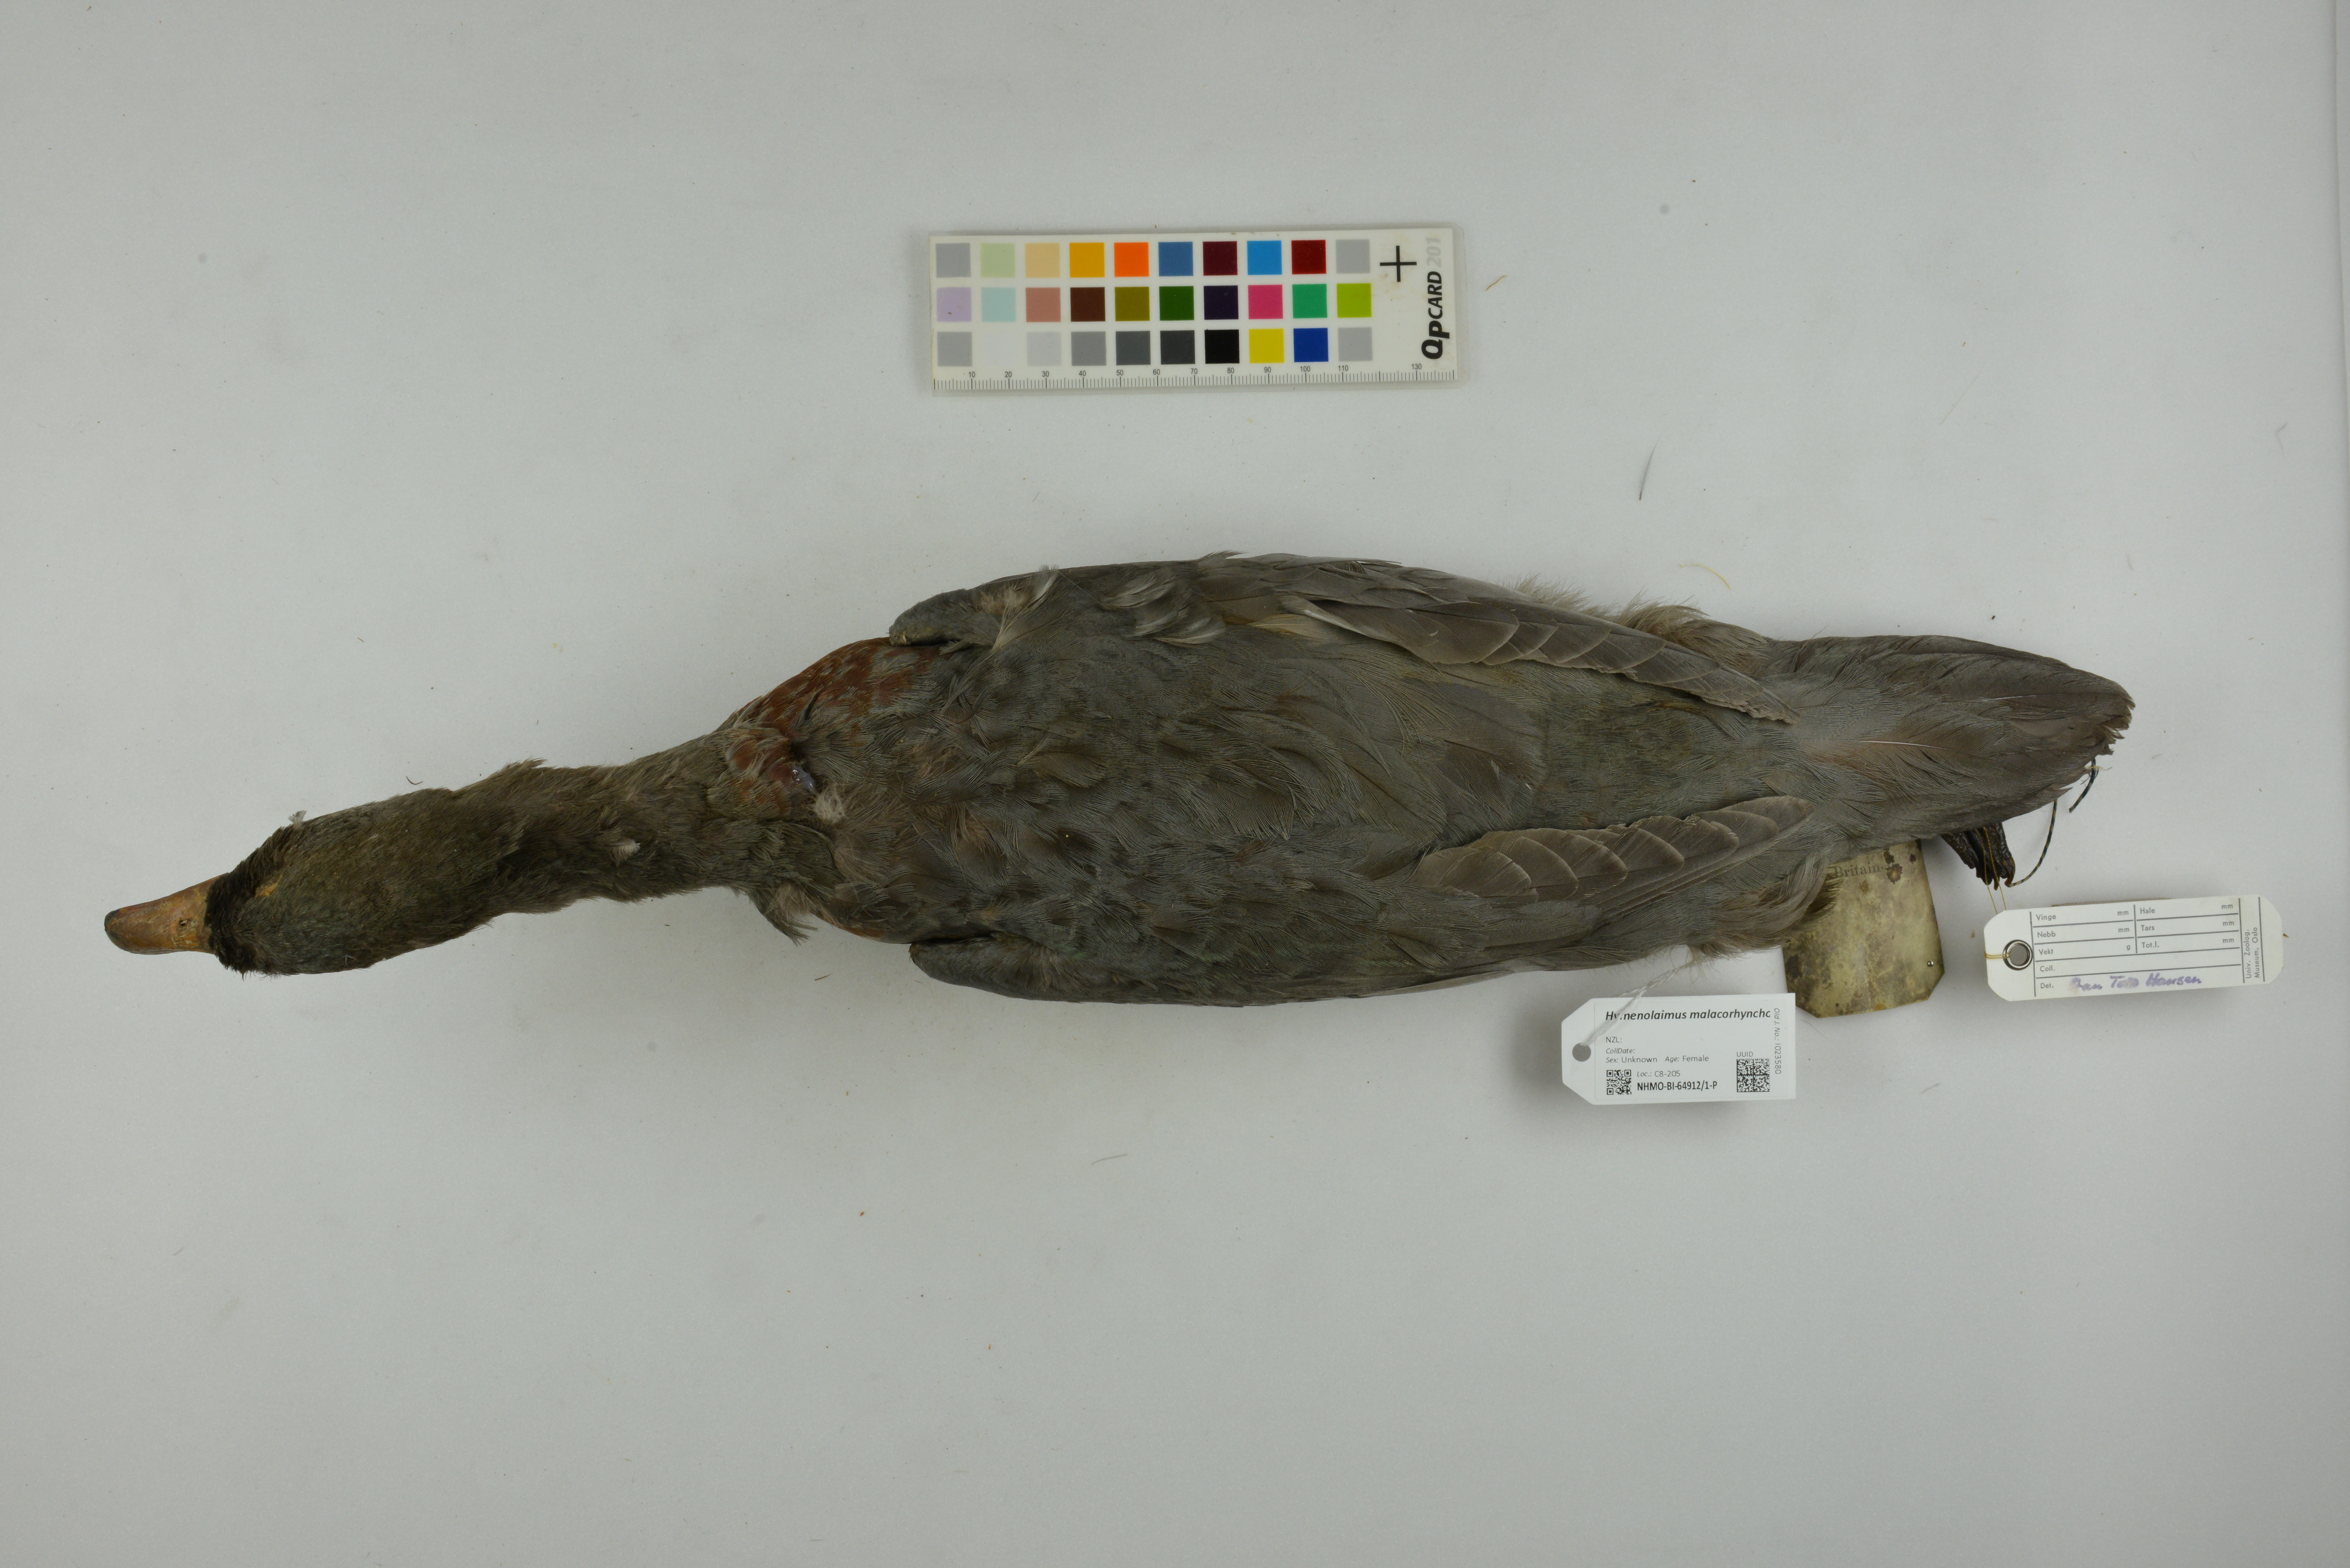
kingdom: Animalia
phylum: Chordata
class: Aves
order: Anseriformes
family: Anatidae
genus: Hymenolaimus
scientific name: Hymenolaimus malacorhynchos
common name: Blue duck
